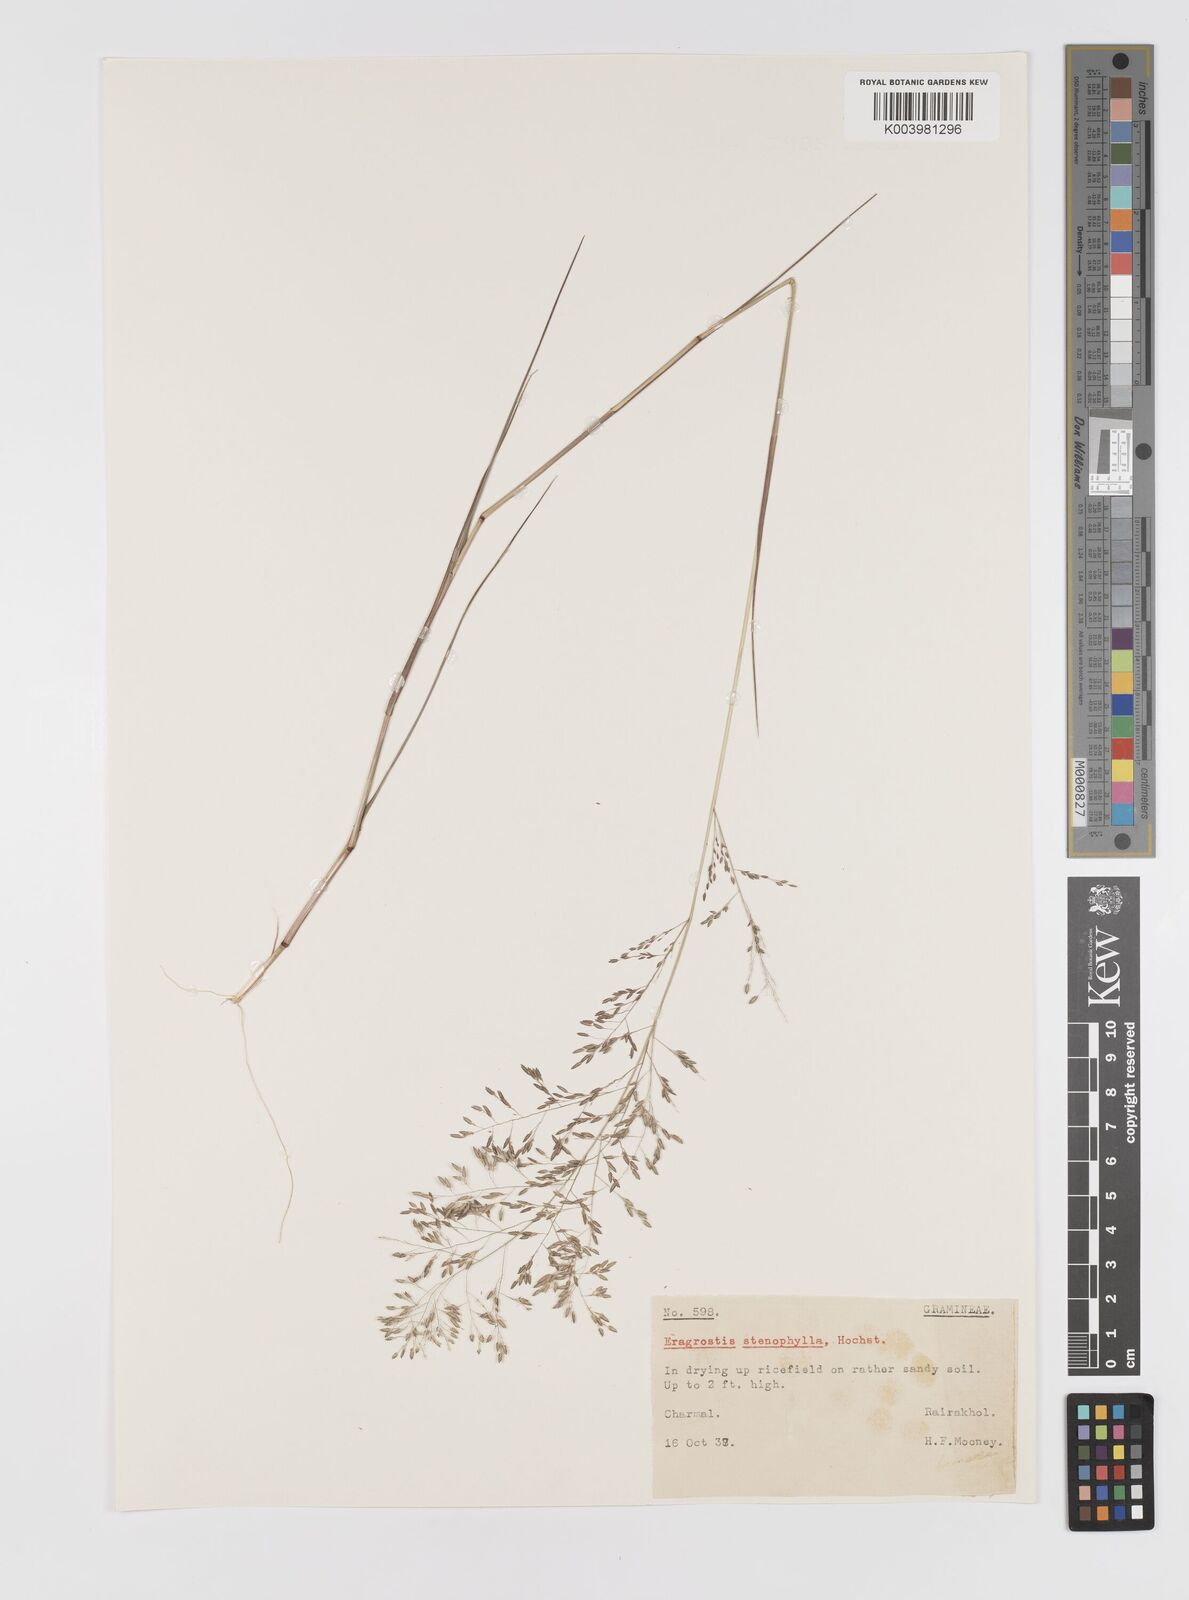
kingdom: Plantae
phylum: Tracheophyta
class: Liliopsida
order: Poales
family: Poaceae
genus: Eragrostis
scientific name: Eragrostis gangetica
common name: Slimflower lovegrass
